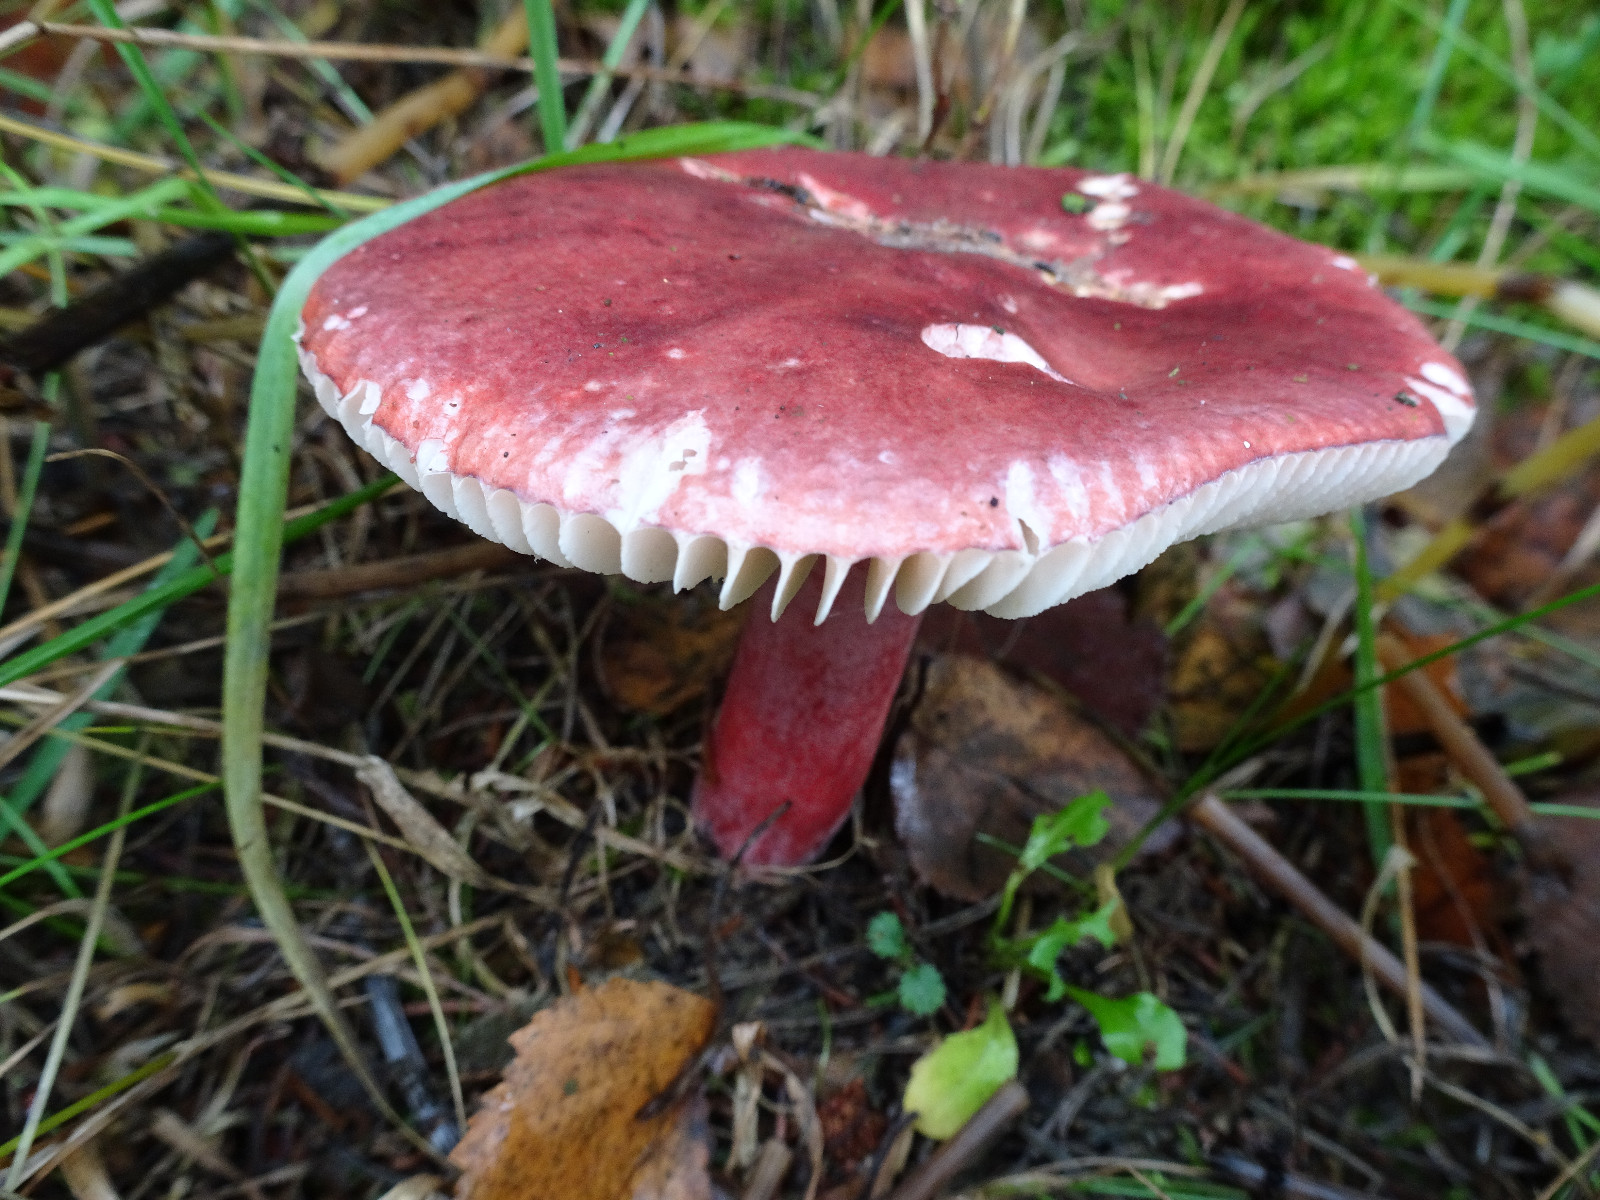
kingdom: Fungi
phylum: Basidiomycota
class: Agaricomycetes
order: Russulales
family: Russulaceae
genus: Russula
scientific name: Russula queletii
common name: Quélets skørhat
